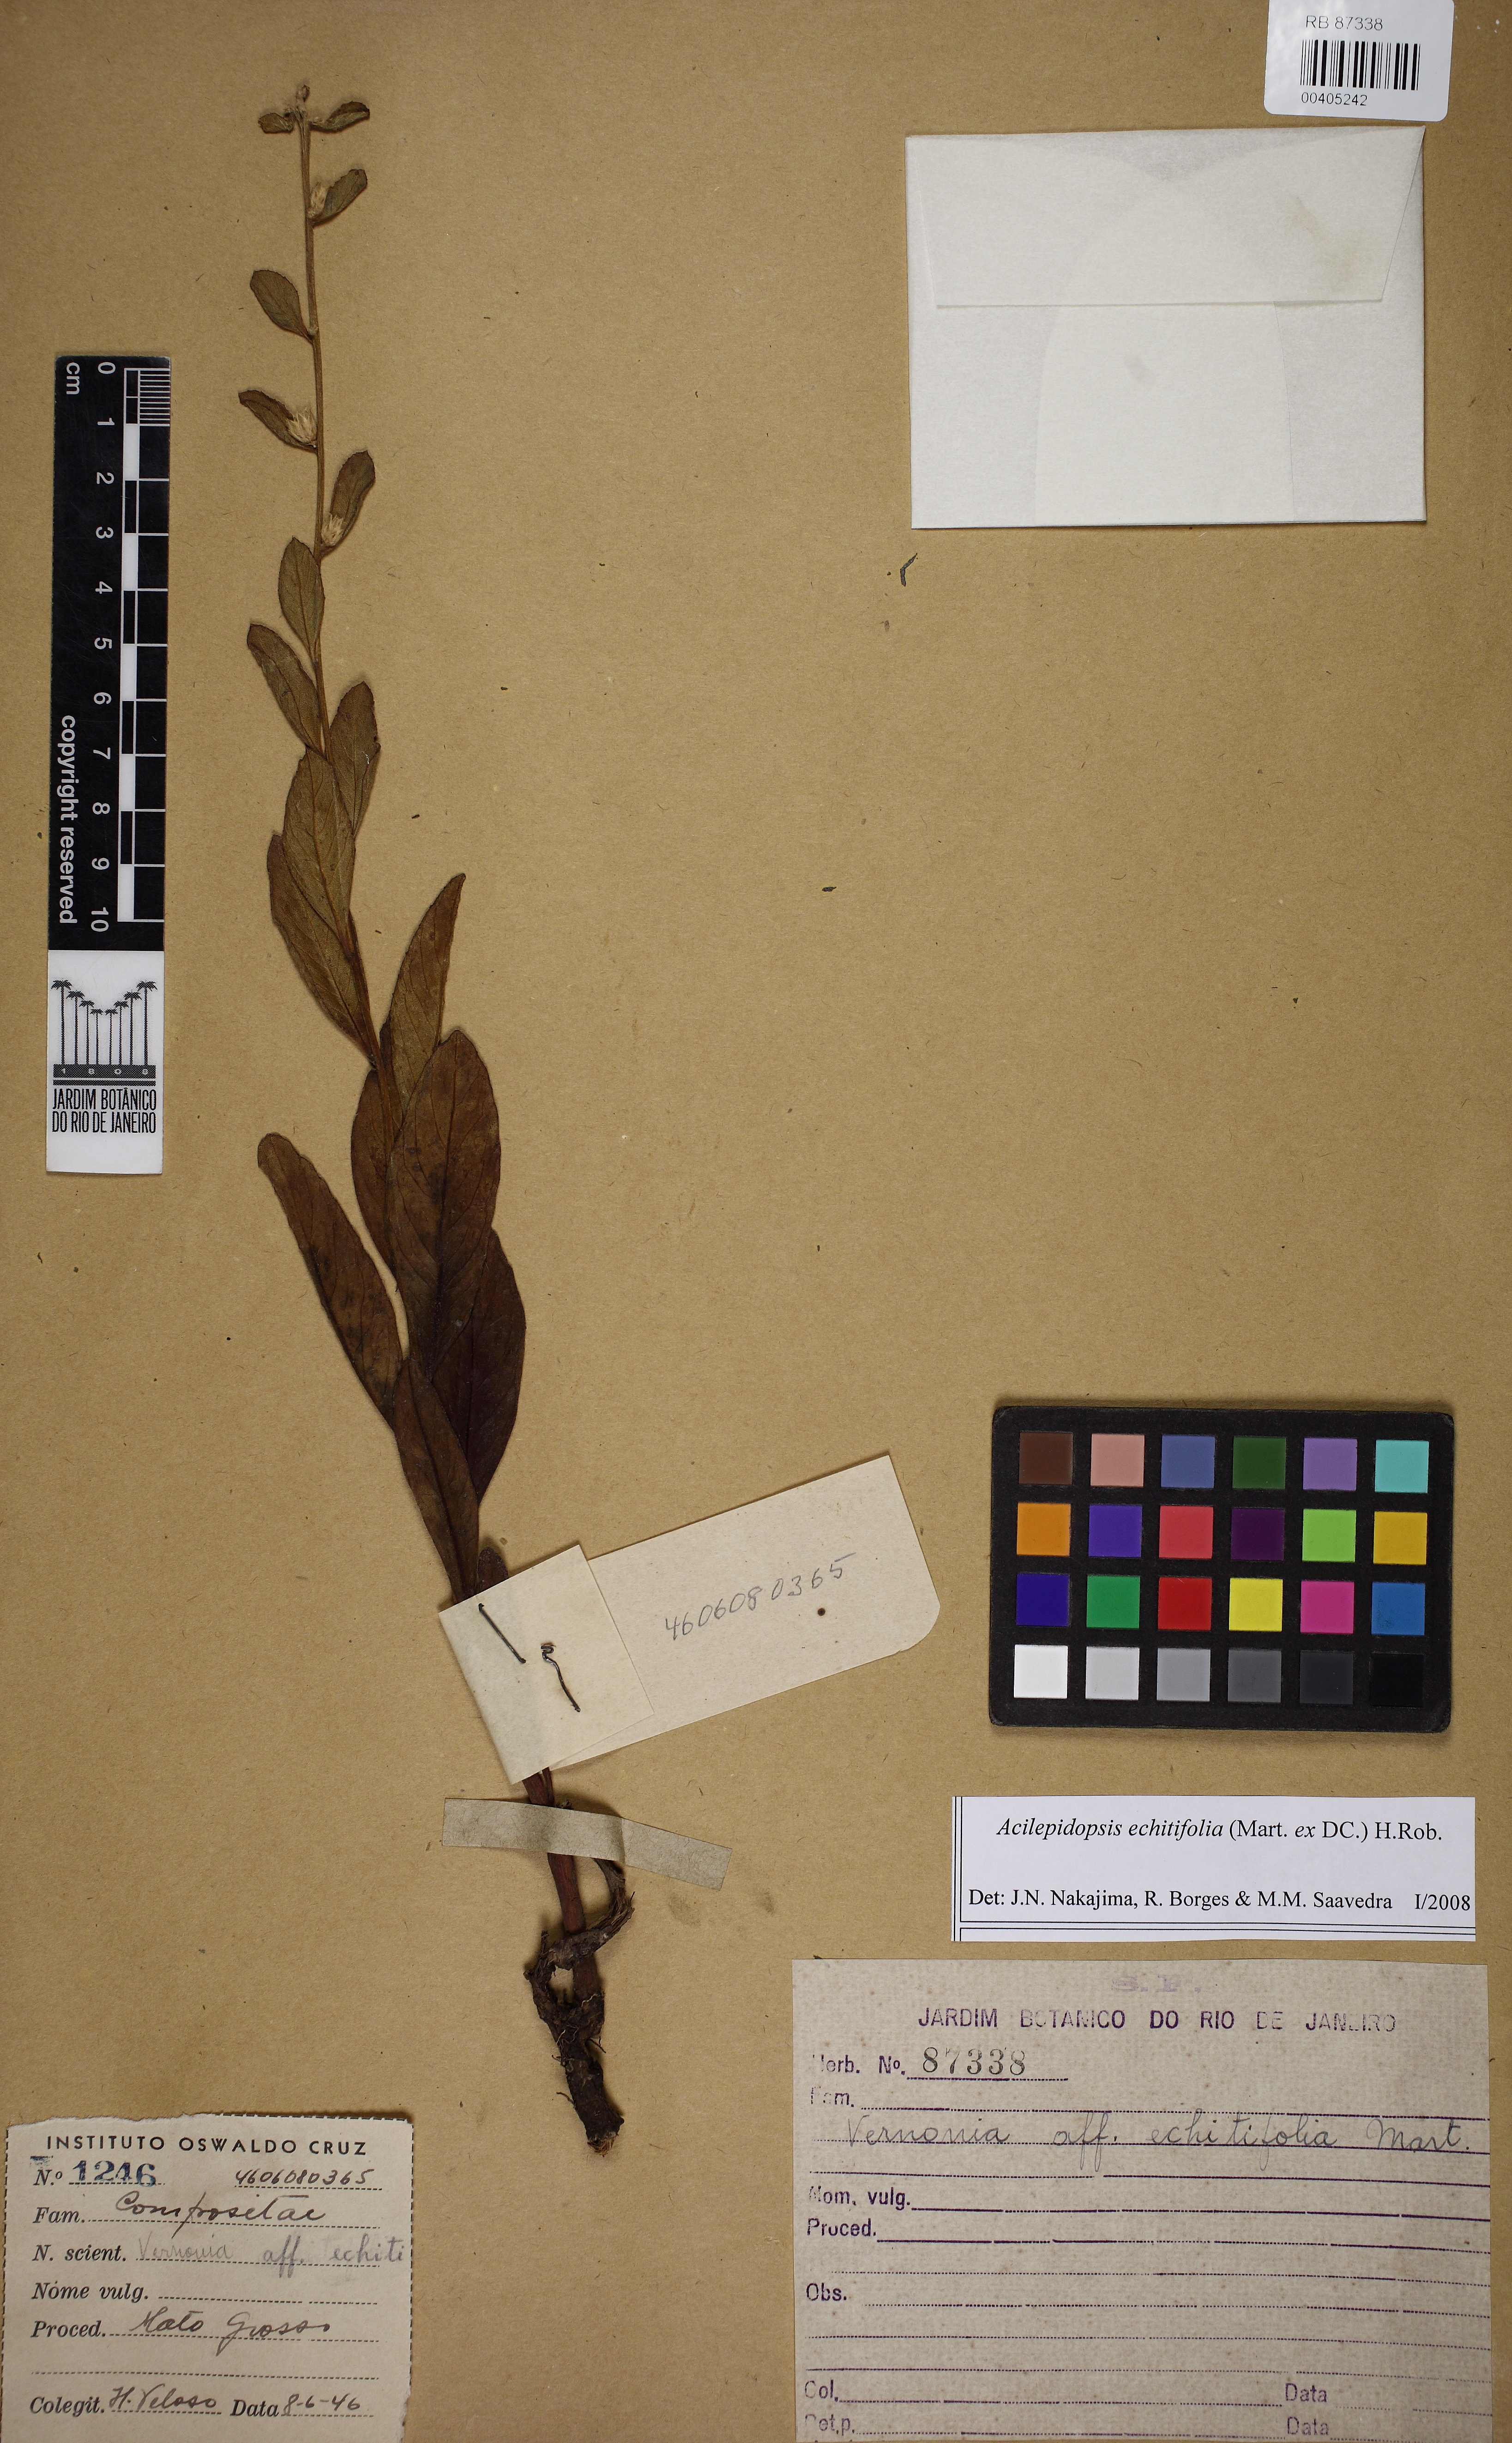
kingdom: Plantae
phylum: Tracheophyta
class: Magnoliopsida
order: Asterales
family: Asteraceae
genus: Acilepidopsis
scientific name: Acilepidopsis echitifolia
